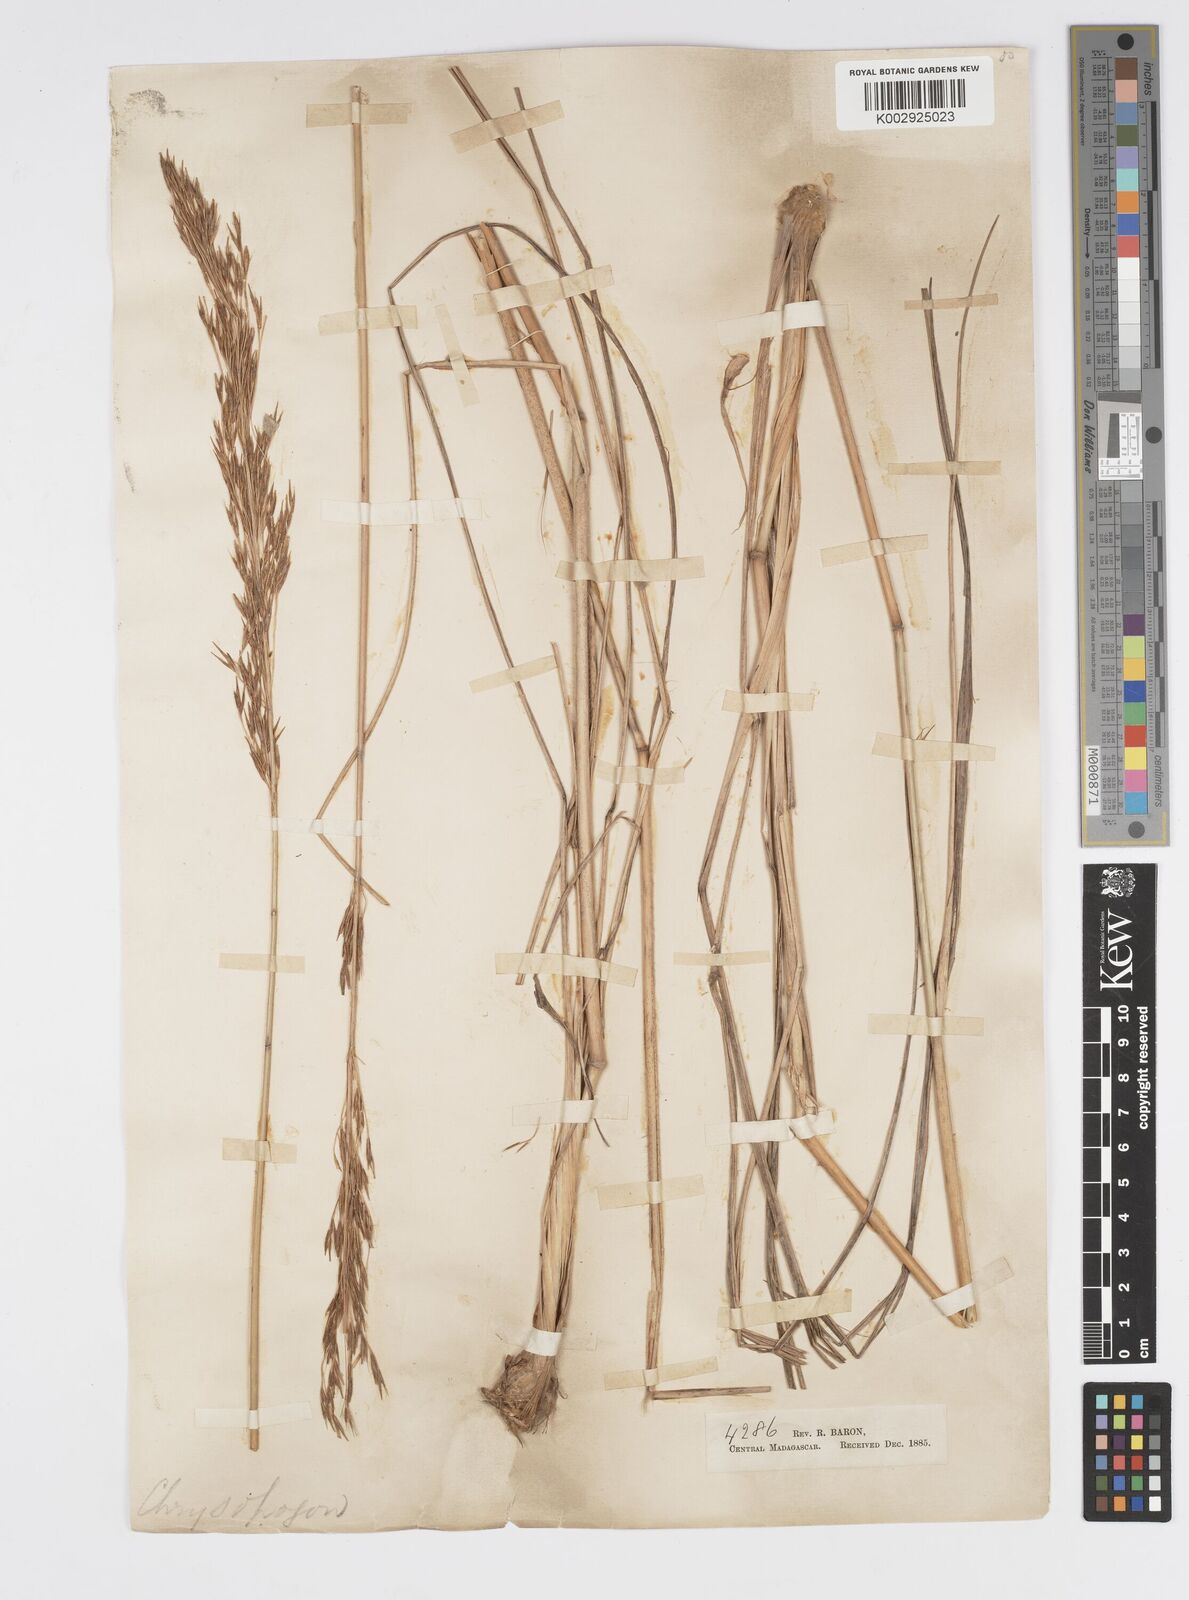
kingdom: Plantae
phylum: Tracheophyta
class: Liliopsida
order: Poales
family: Poaceae
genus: Loudetia
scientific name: Loudetia
